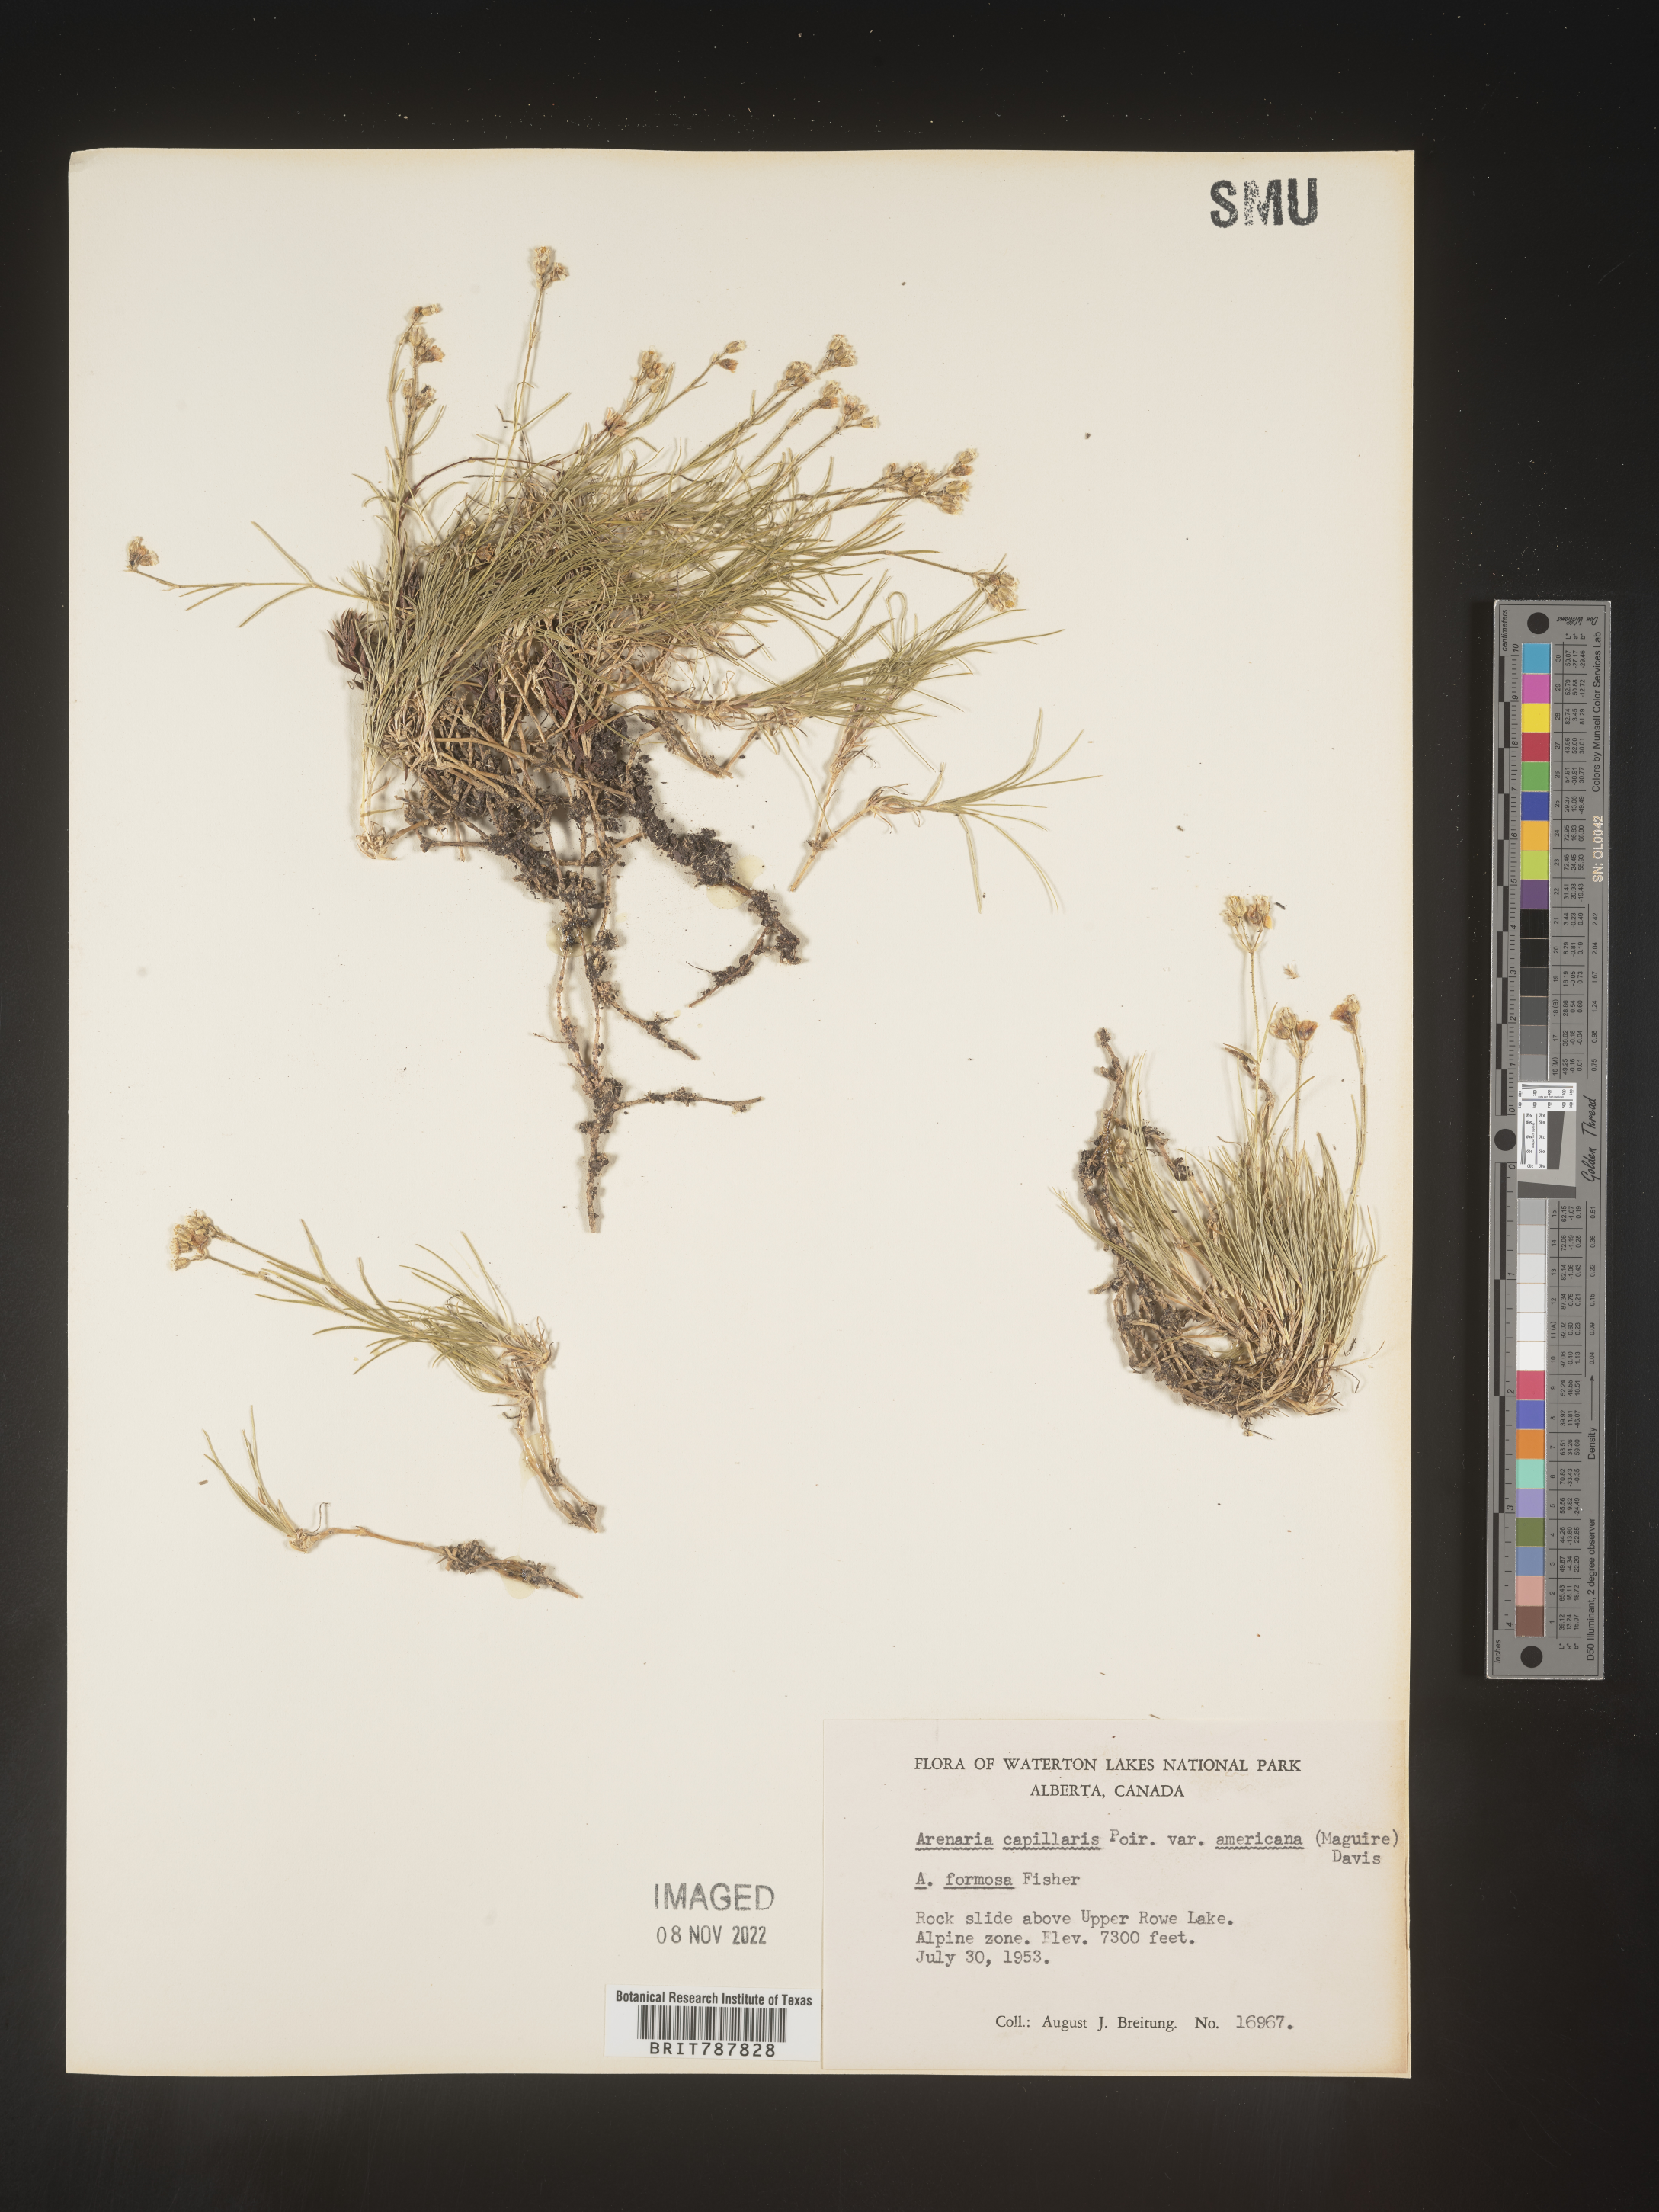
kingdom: Plantae
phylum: Tracheophyta
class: Magnoliopsida
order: Caryophyllales
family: Caryophyllaceae
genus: Arenaria
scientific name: Arenaria
